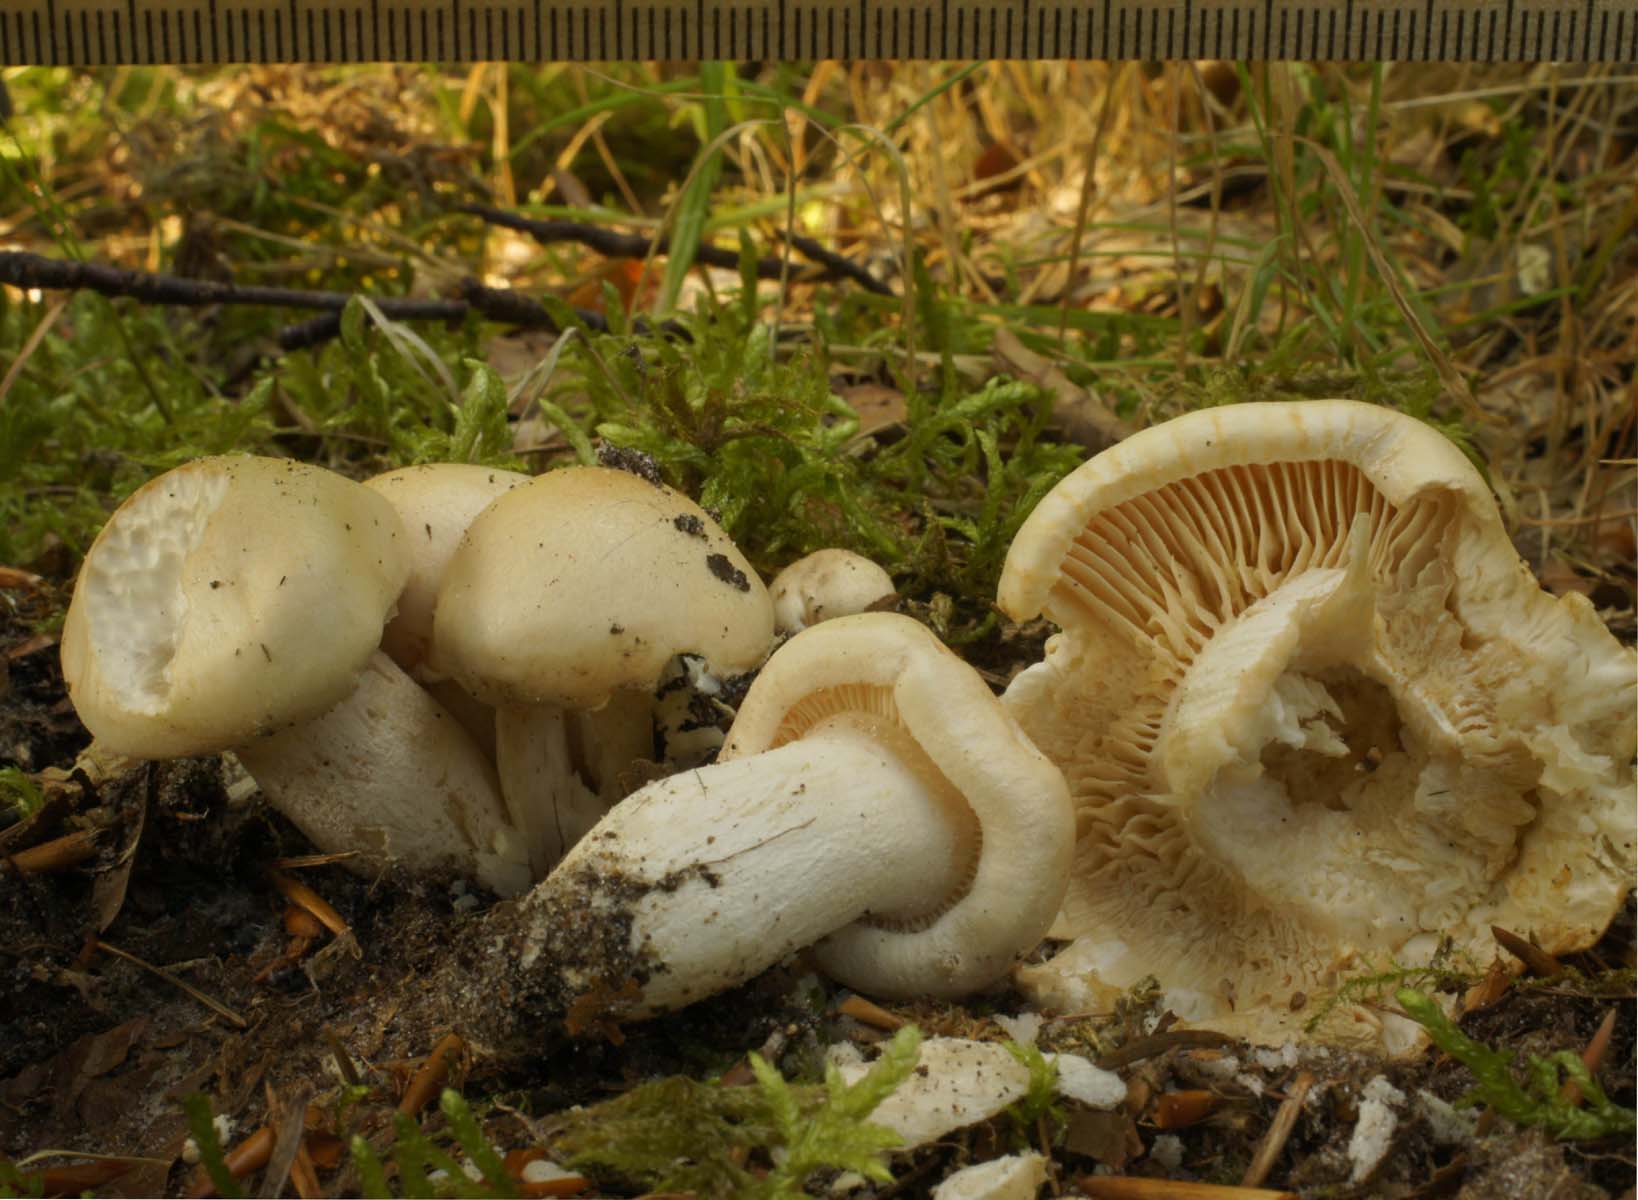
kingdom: Fungi
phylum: Basidiomycota
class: Agaricomycetes
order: Agaricales
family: Hygrophoraceae
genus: Hygrophorus
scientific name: Hygrophorus penarius
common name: spiselig sneglehat
